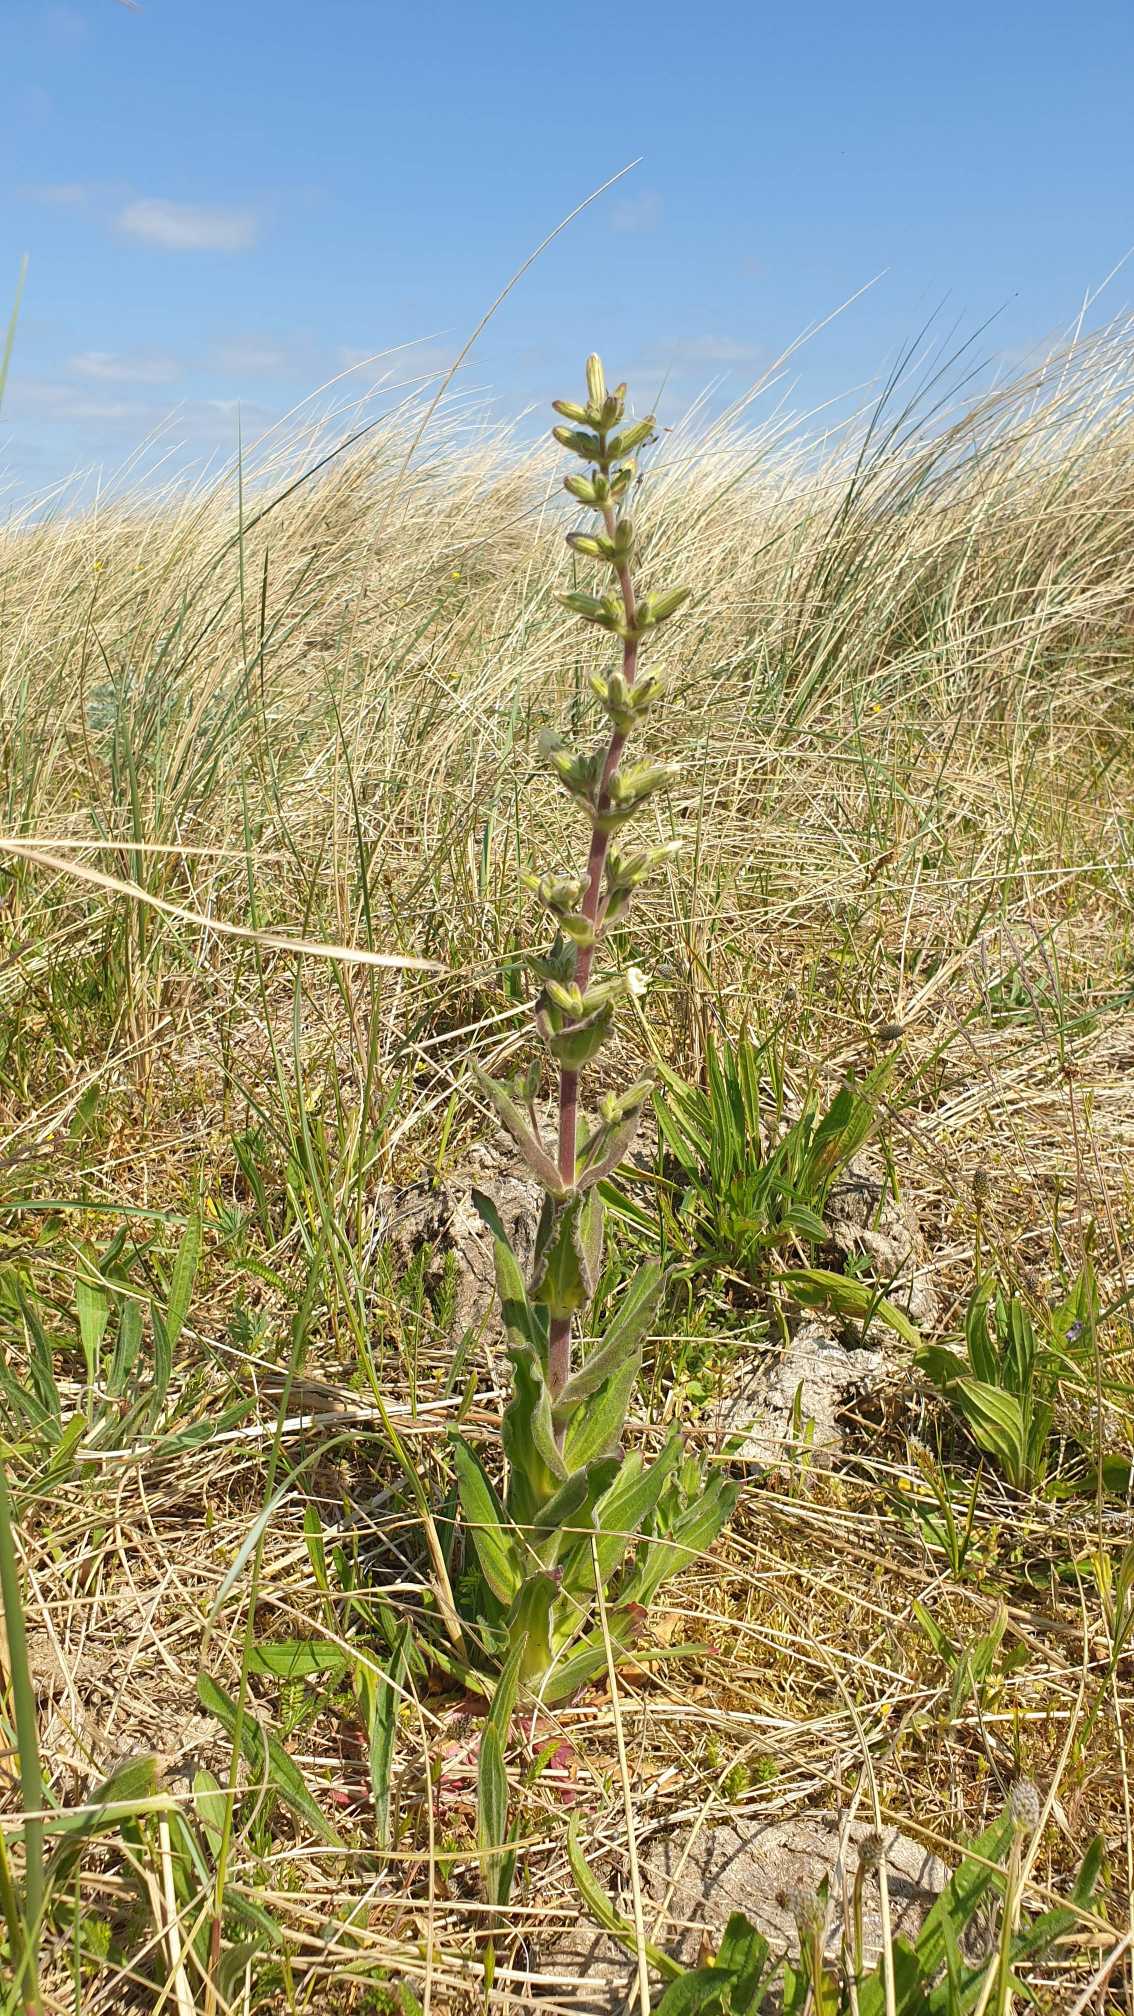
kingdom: Plantae
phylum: Tracheophyta
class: Magnoliopsida
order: Caryophyllales
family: Caryophyllaceae
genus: Silene
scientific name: Silene viscosa
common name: Klæbrig limurt
